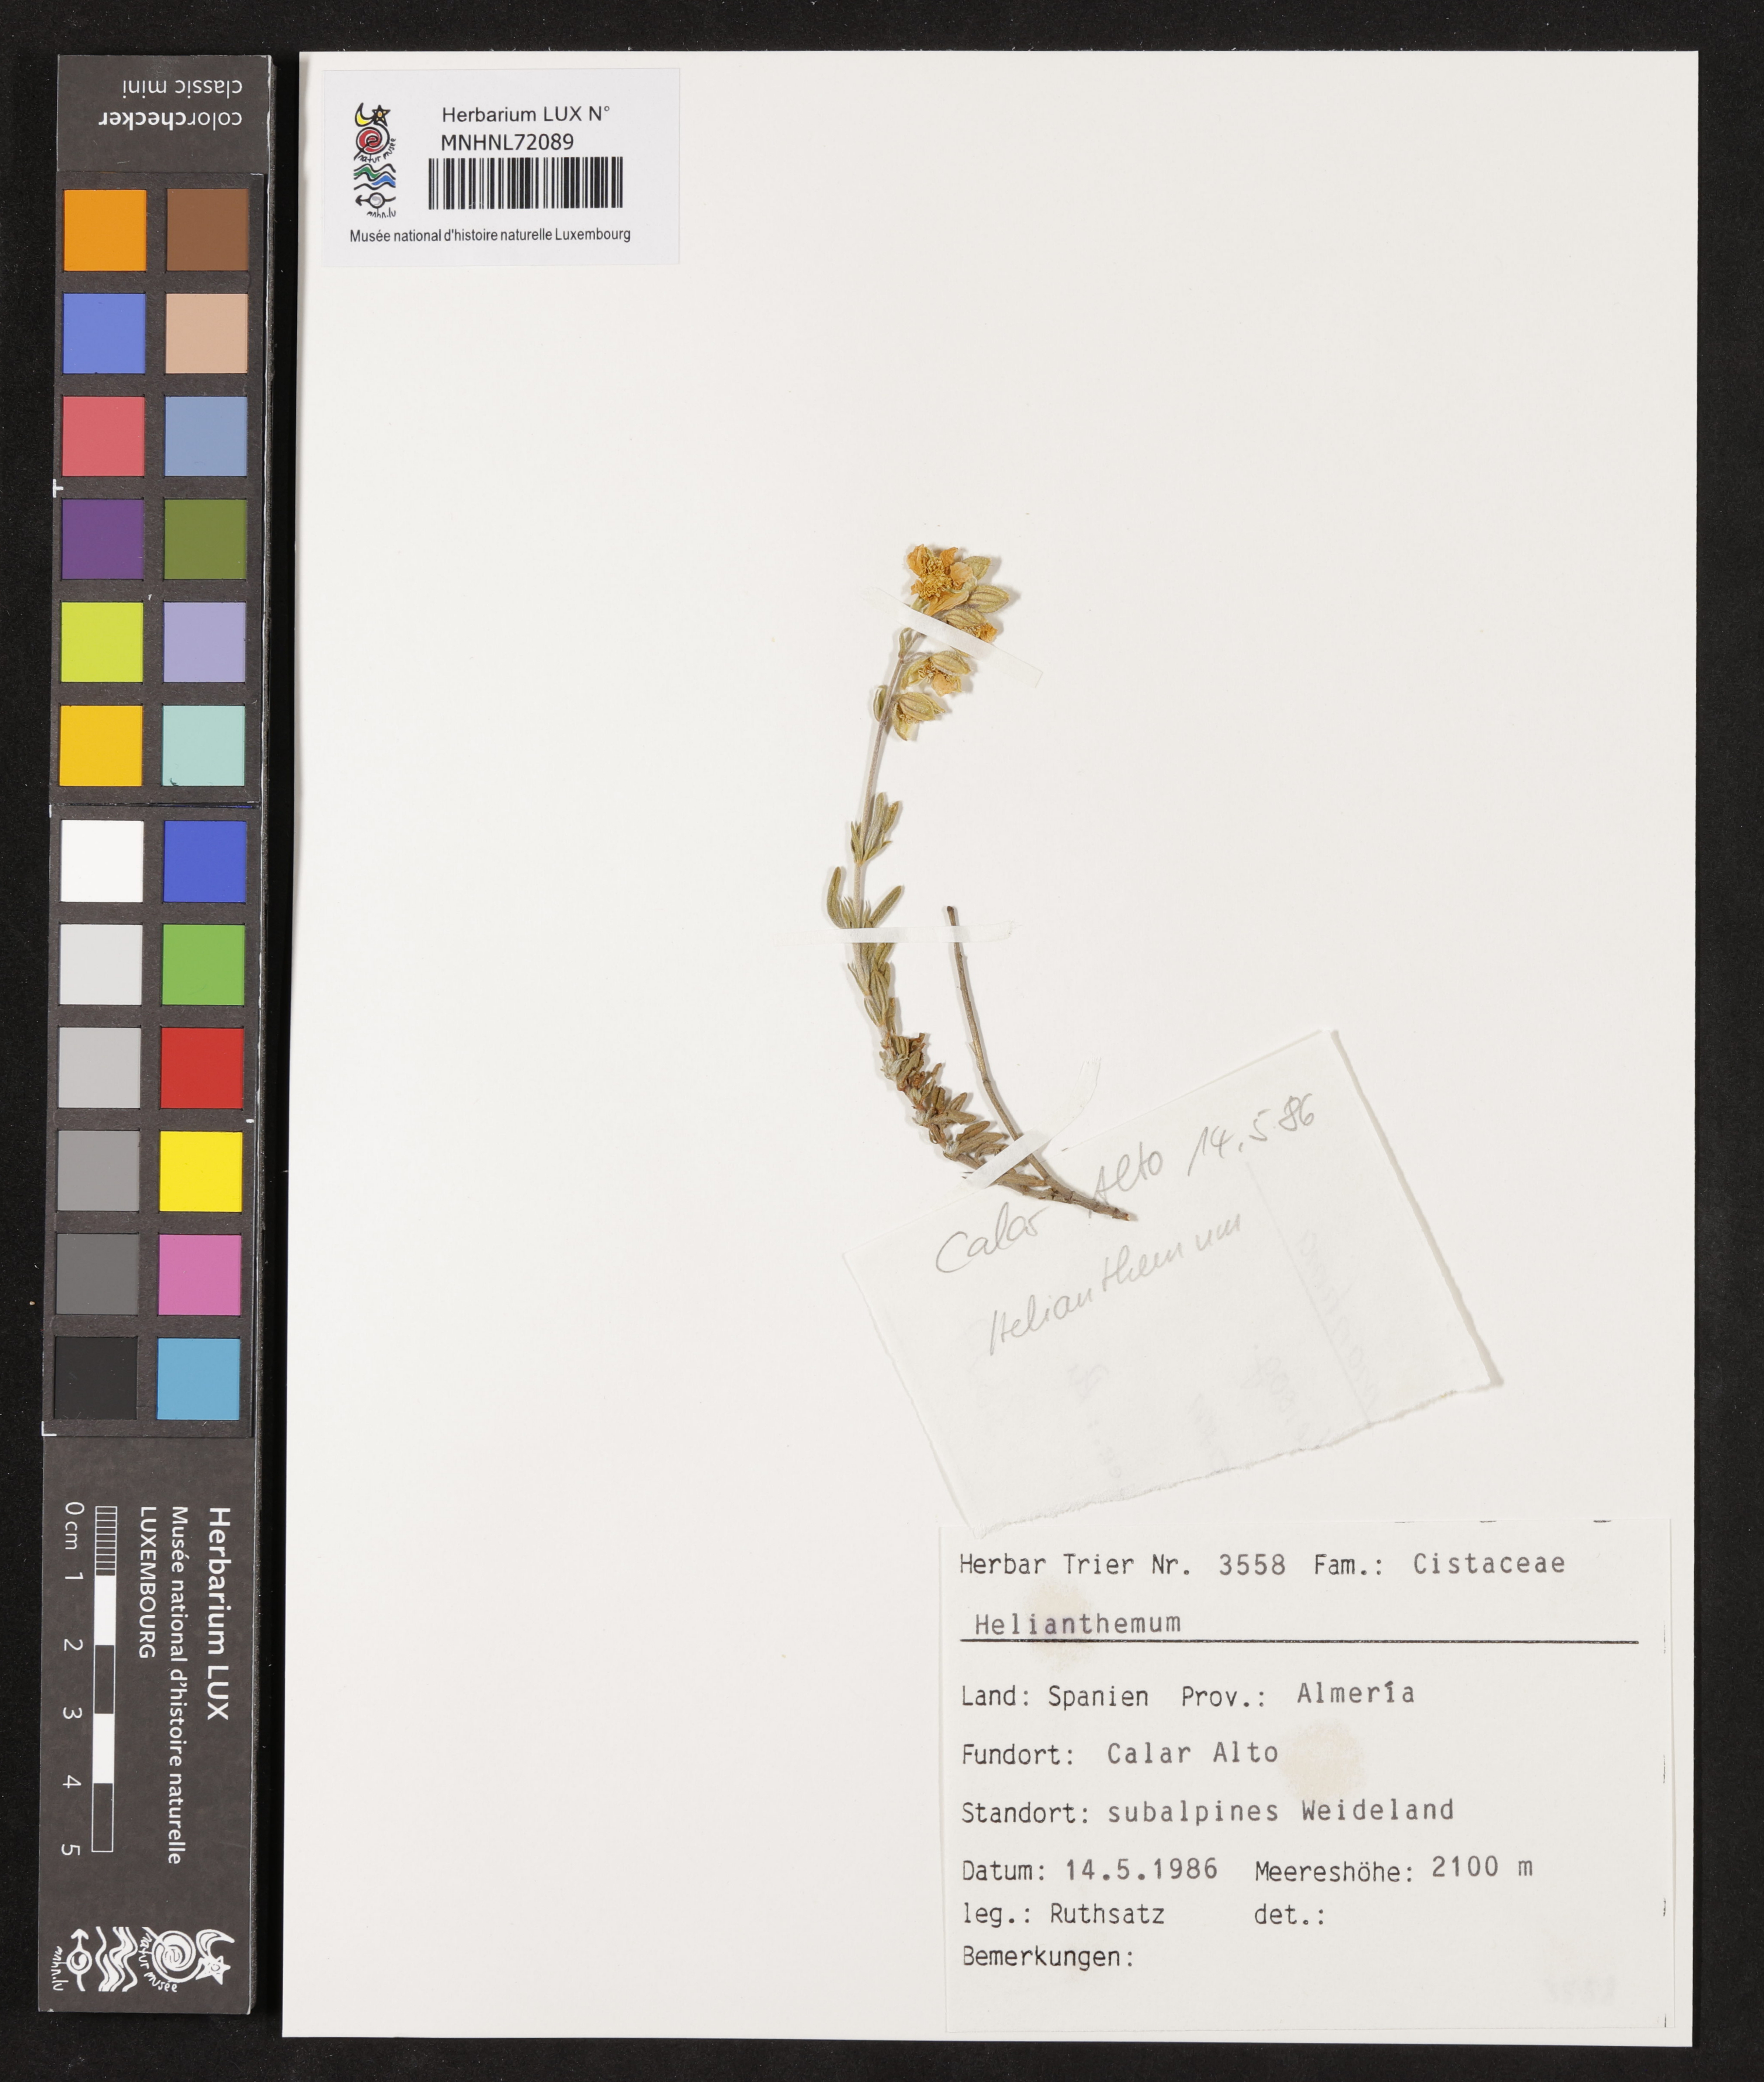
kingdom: Plantae
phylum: Tracheophyta
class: Magnoliopsida
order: Malvales
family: Cistaceae
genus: Helianthemum
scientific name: Helianthemum
